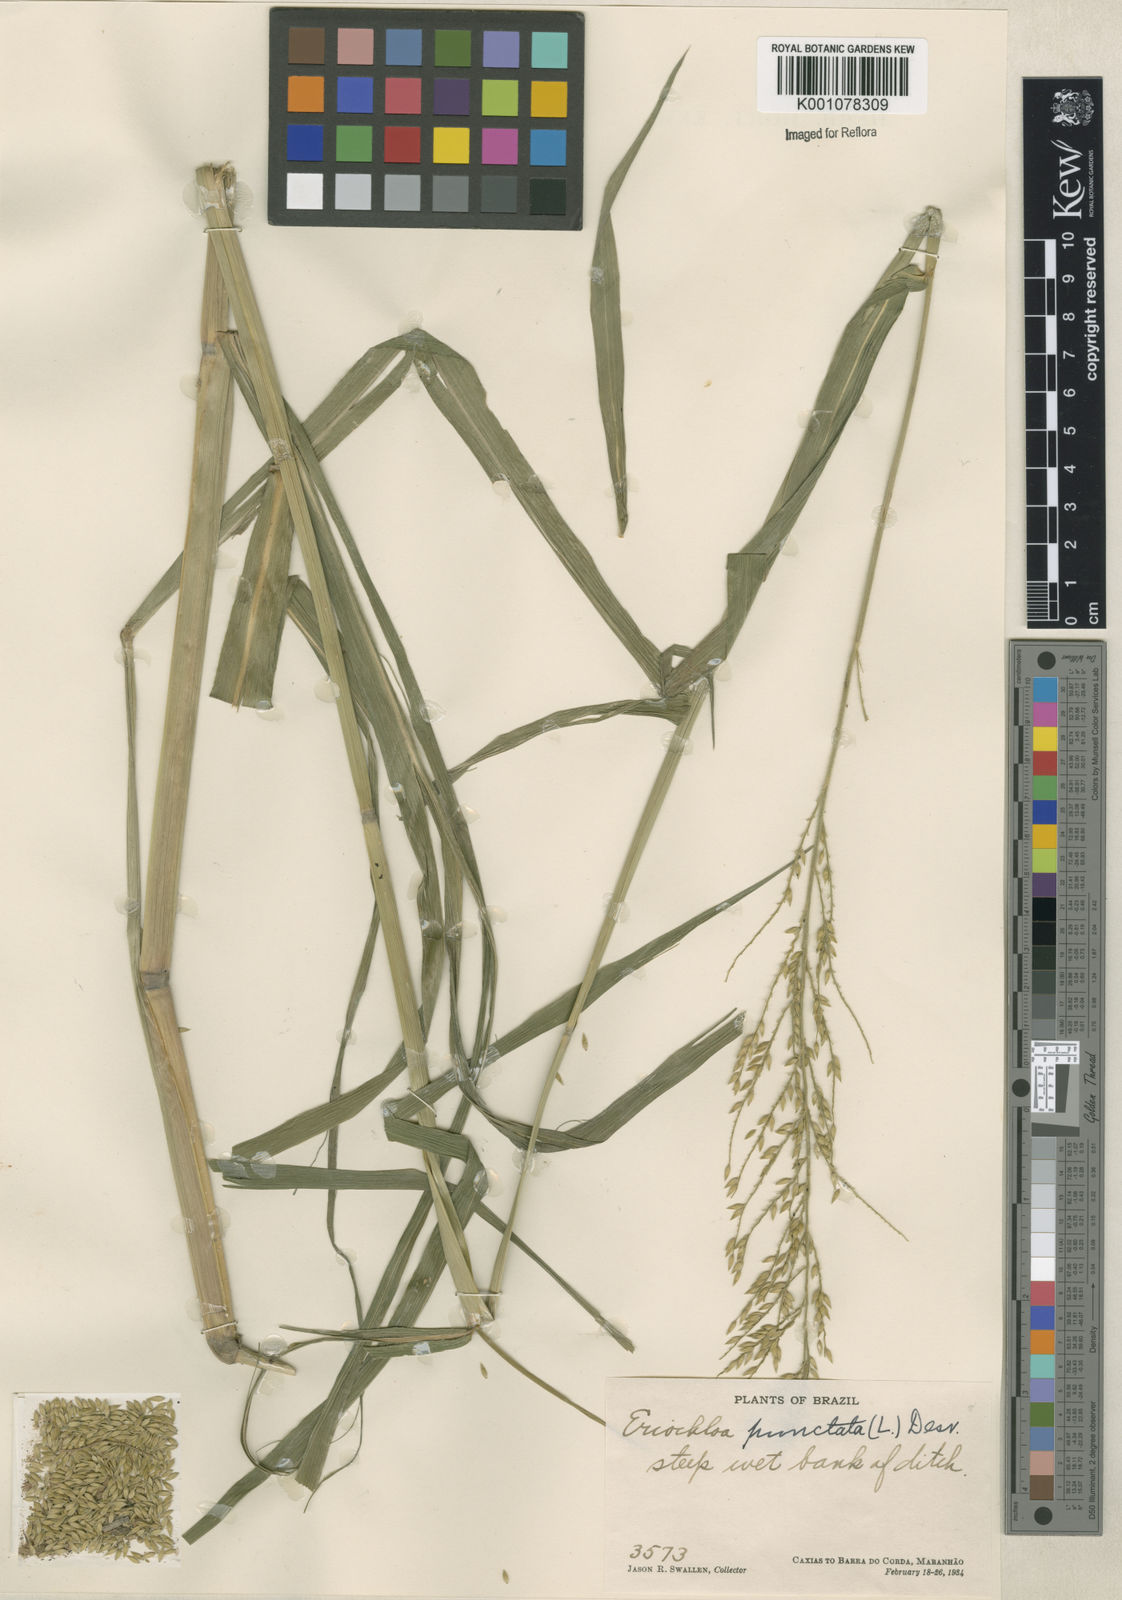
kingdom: Plantae
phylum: Tracheophyta
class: Liliopsida
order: Poales
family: Poaceae
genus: Eriochloa
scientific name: Eriochloa punctata
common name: Louisiana cupgrass
